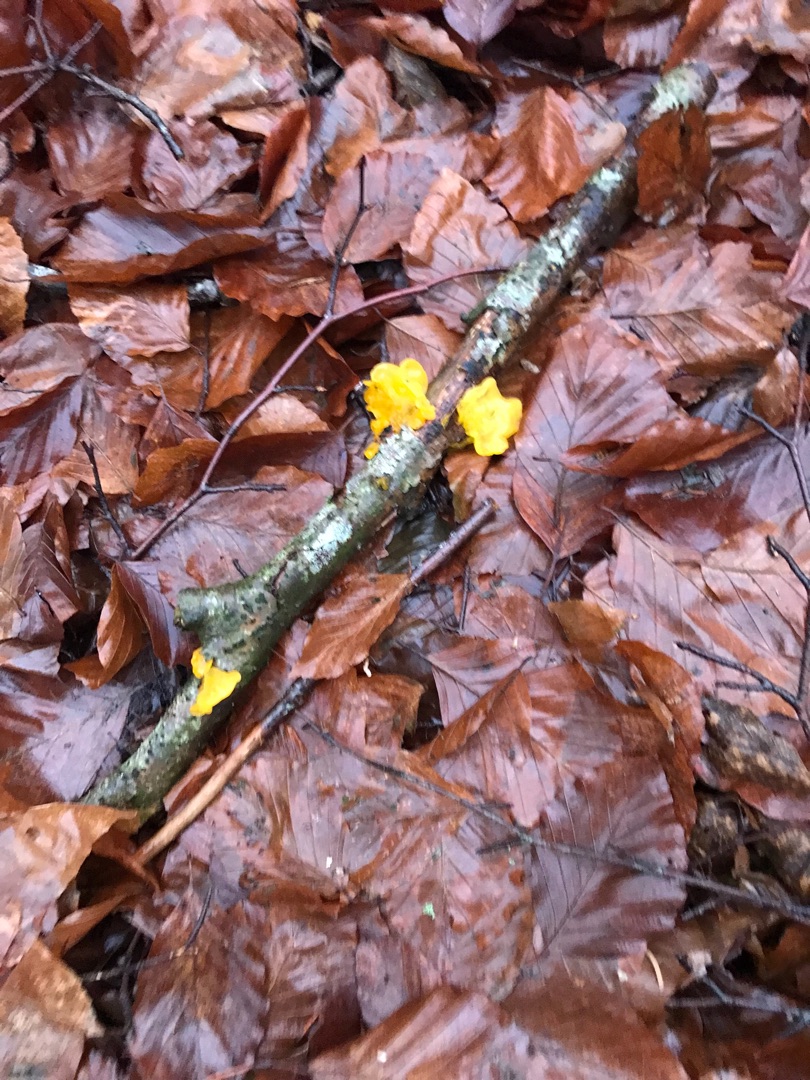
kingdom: Fungi
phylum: Basidiomycota
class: Tremellomycetes
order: Tremellales
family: Tremellaceae
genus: Tremella
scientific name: Tremella mesenterica
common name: Gul bævresvamp
